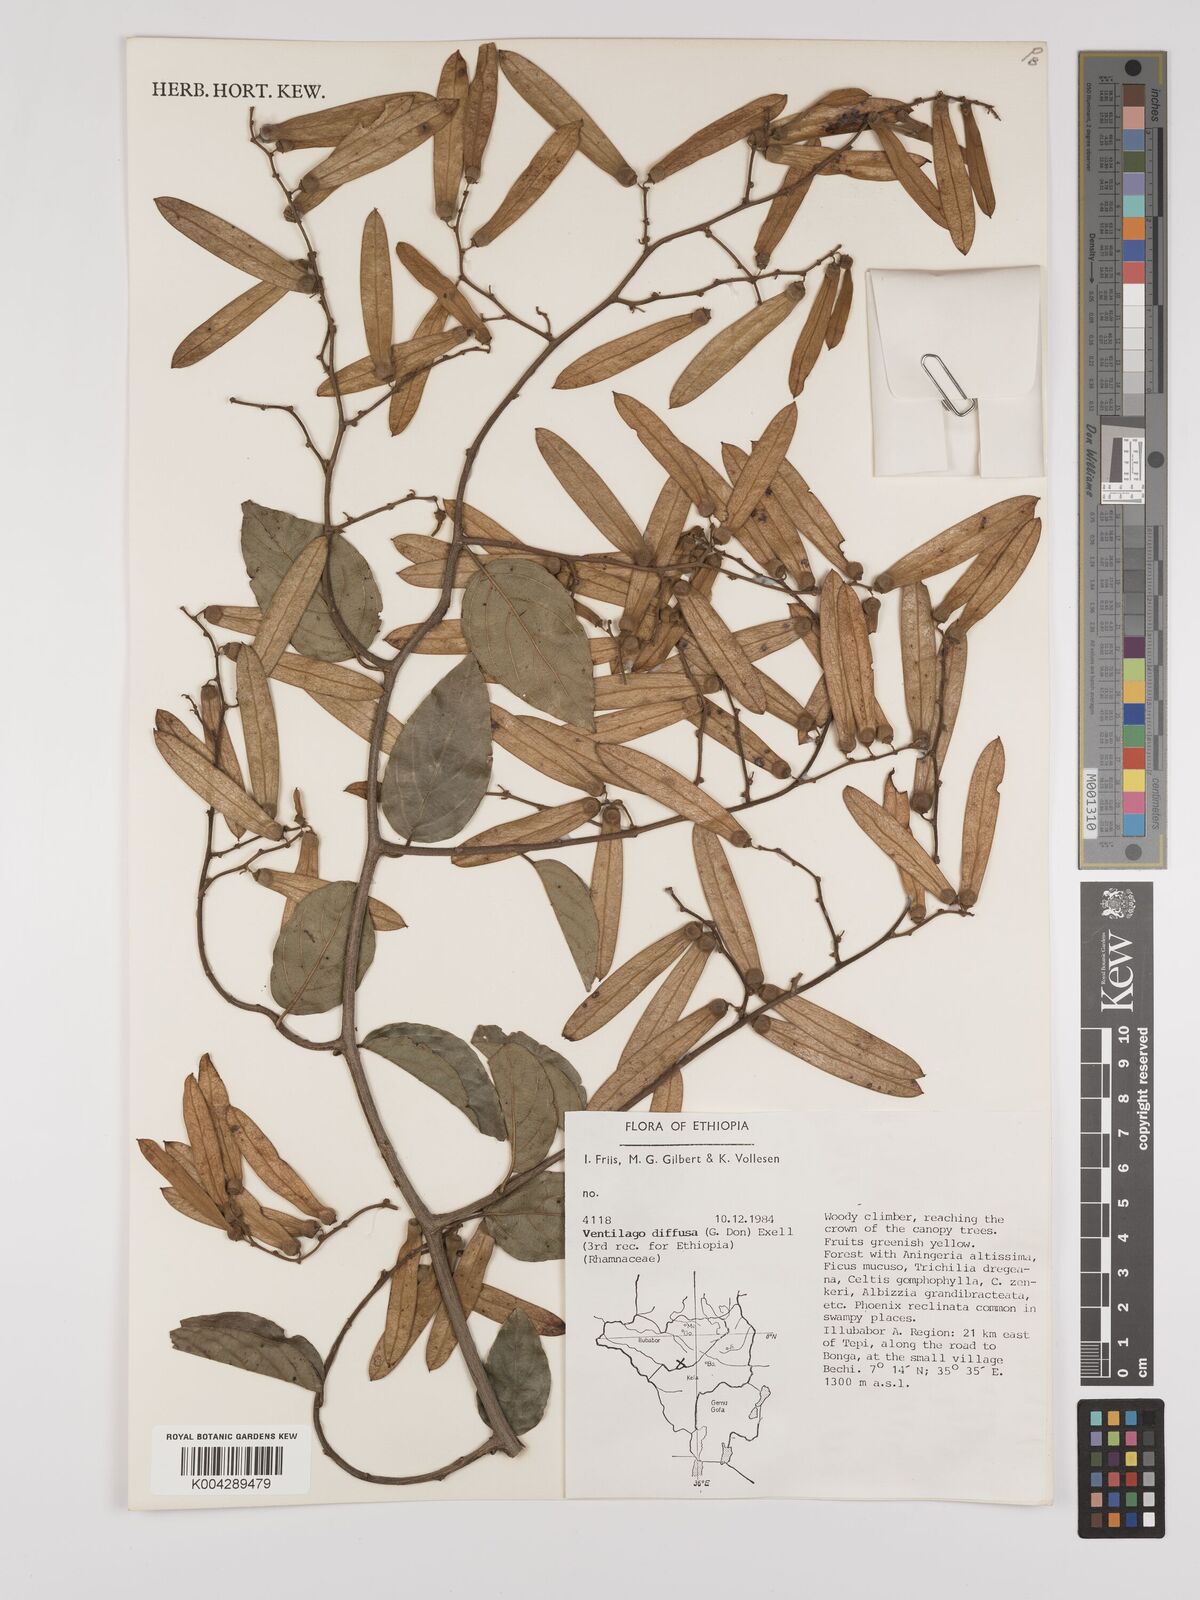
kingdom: Plantae
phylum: Tracheophyta
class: Magnoliopsida
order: Rosales
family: Rhamnaceae
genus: Ventilago
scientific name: Ventilago diffusa
